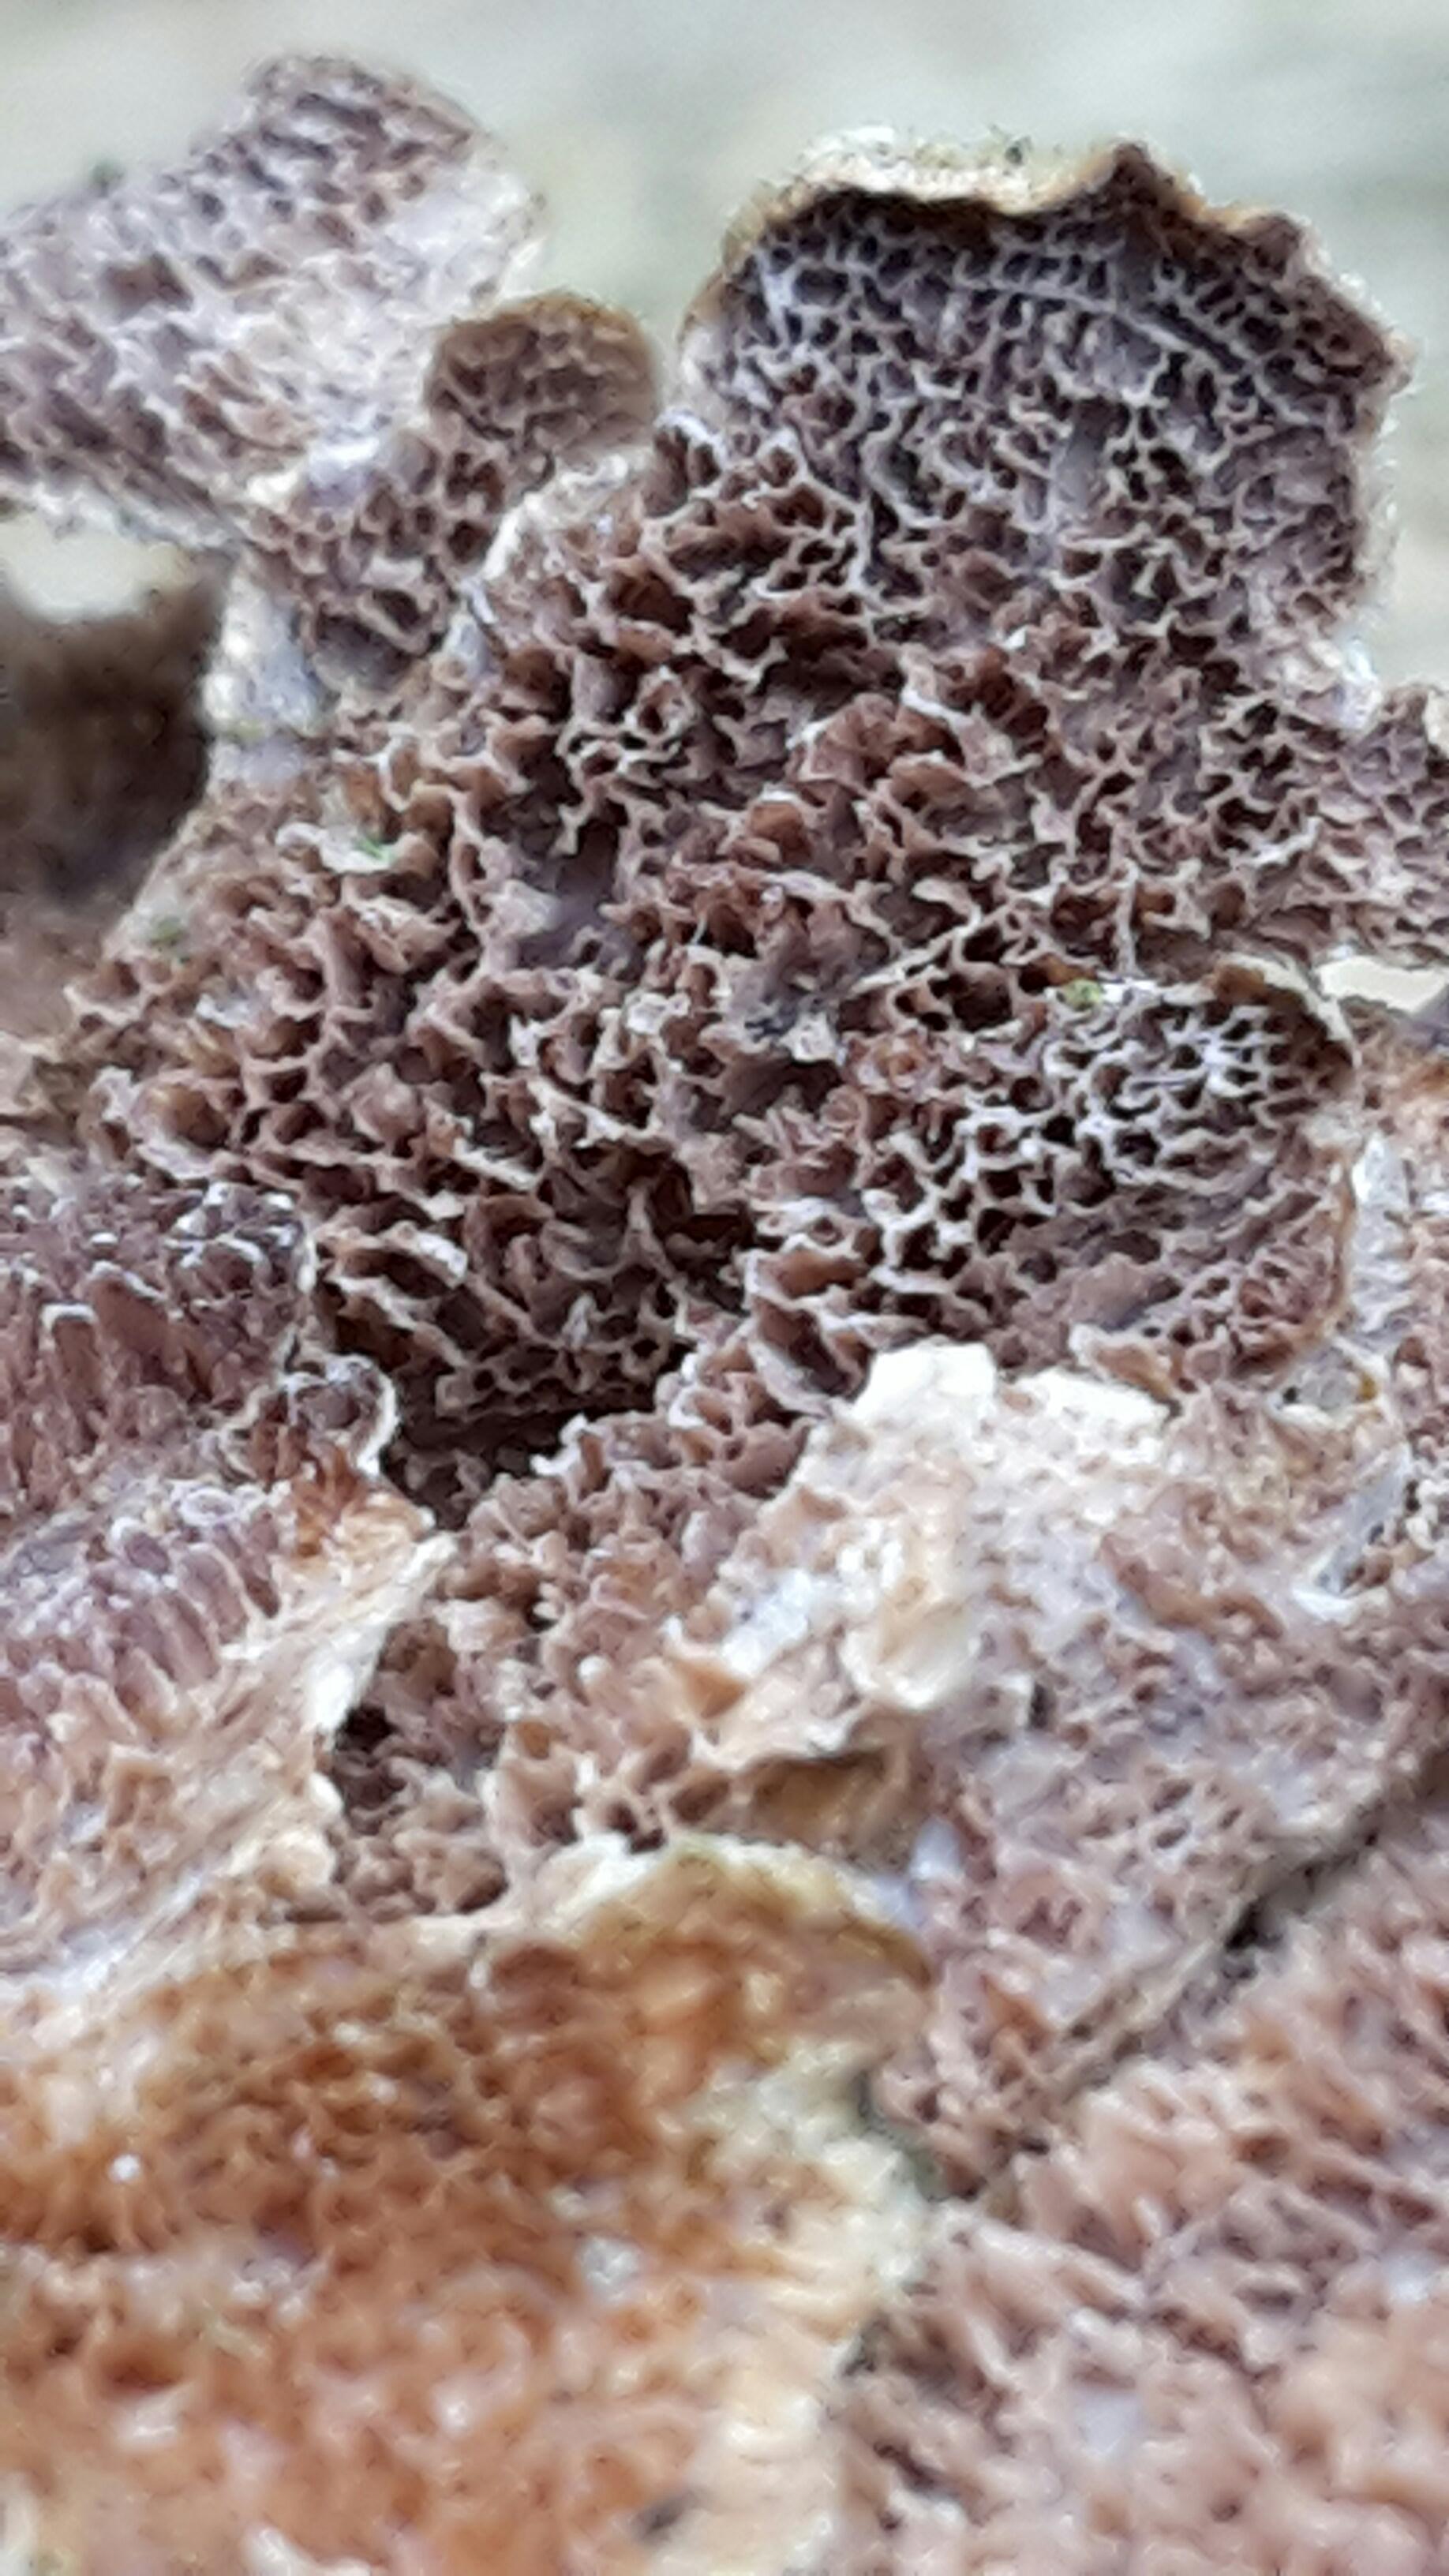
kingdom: Fungi
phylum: Basidiomycota
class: Agaricomycetes
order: Hymenochaetales
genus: Trichaptum
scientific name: Trichaptum fuscoviolaceum
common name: tandet violporesvamp
